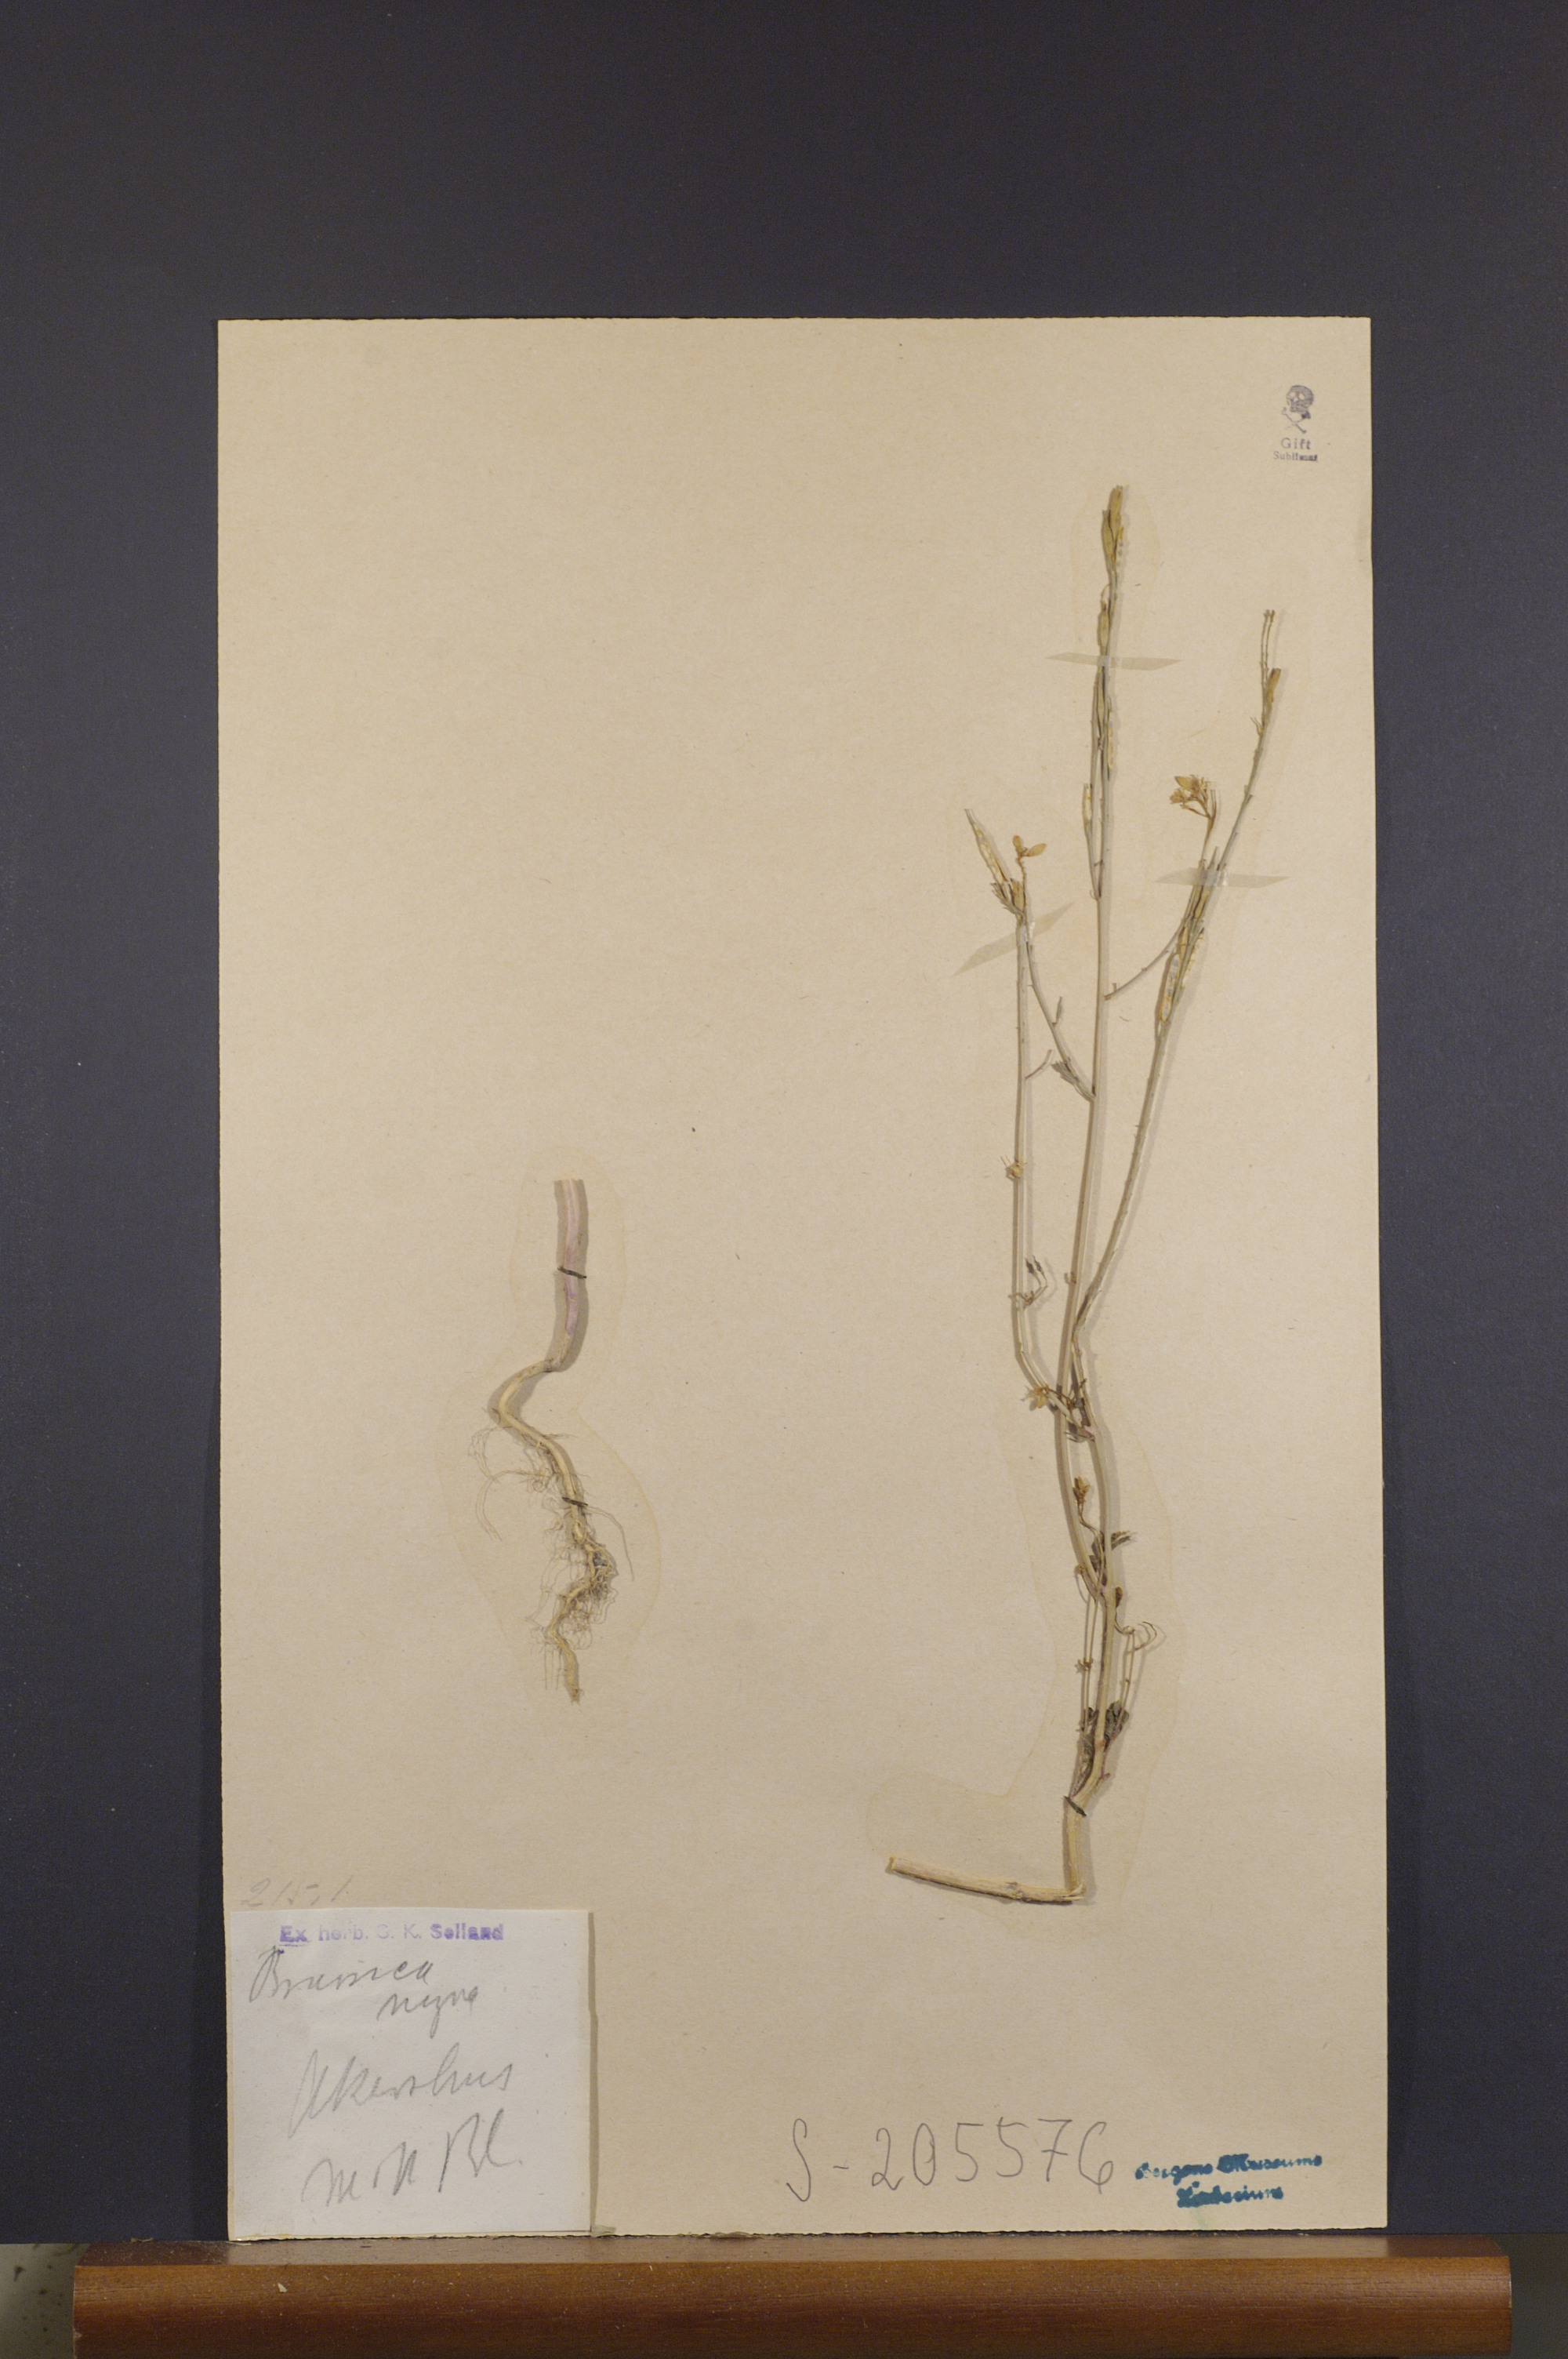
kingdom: Plantae
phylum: Tracheophyta
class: Magnoliopsida
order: Brassicales
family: Brassicaceae
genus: Brassica
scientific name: Brassica napus
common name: Rape
